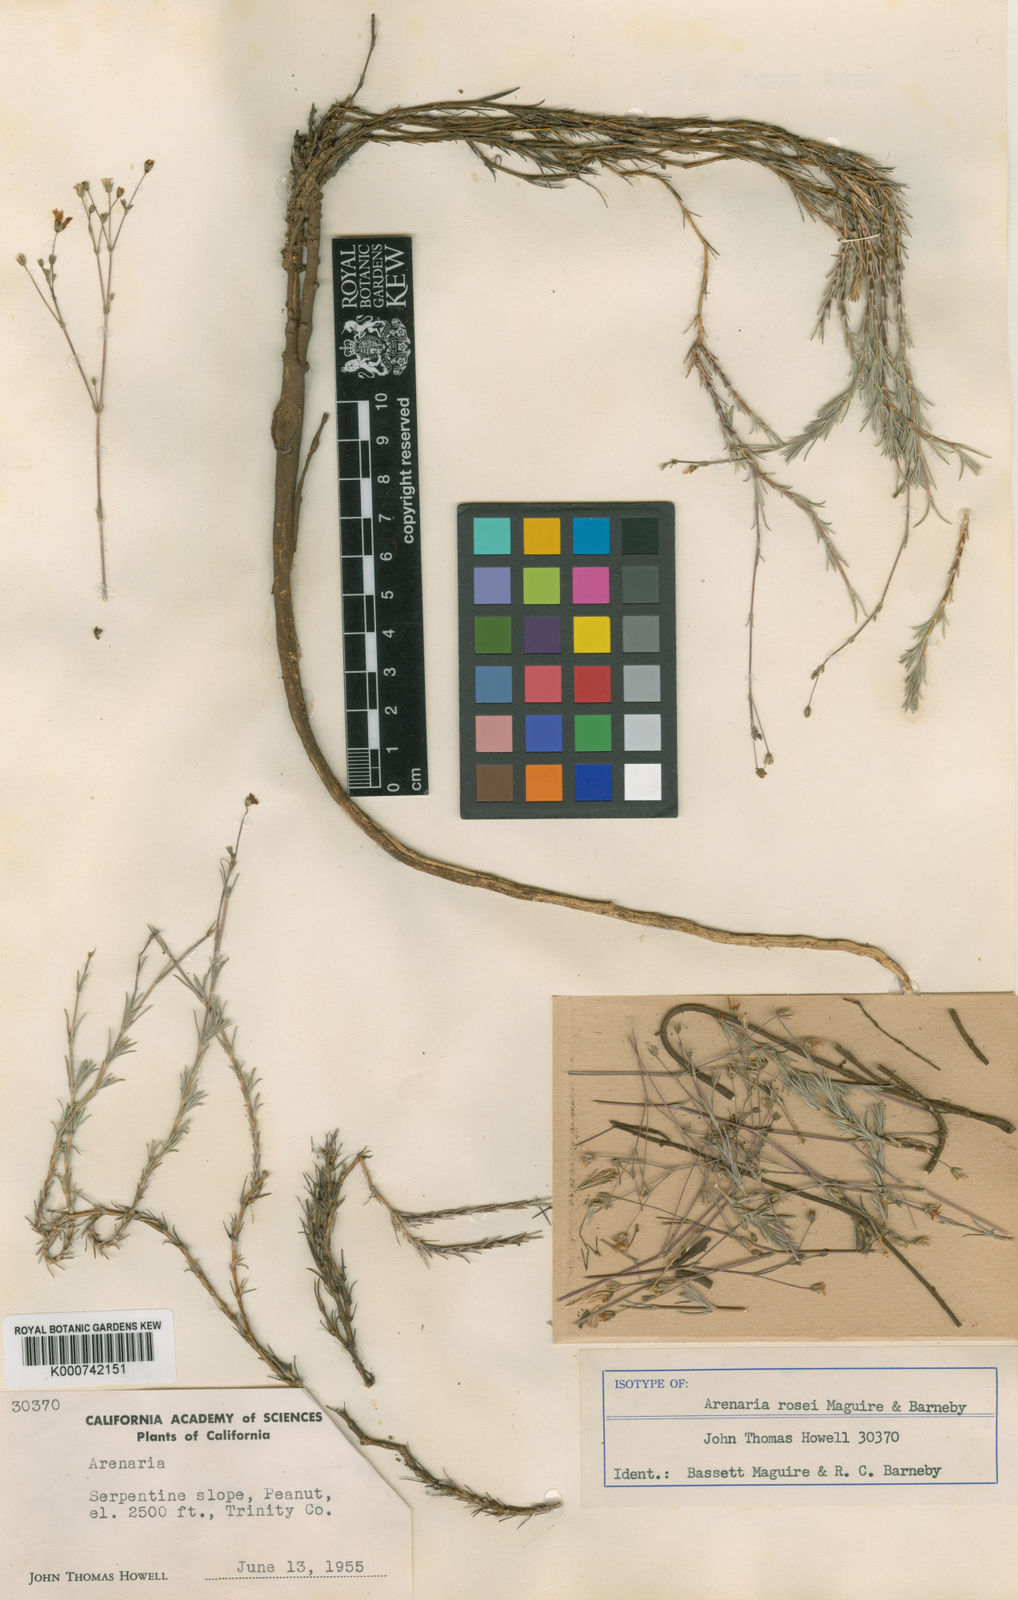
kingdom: Plantae
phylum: Tracheophyta
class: Magnoliopsida
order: Caryophyllales
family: Caryophyllaceae
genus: Sabulina
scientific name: Sabulina rosei
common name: Ross' sandwort
